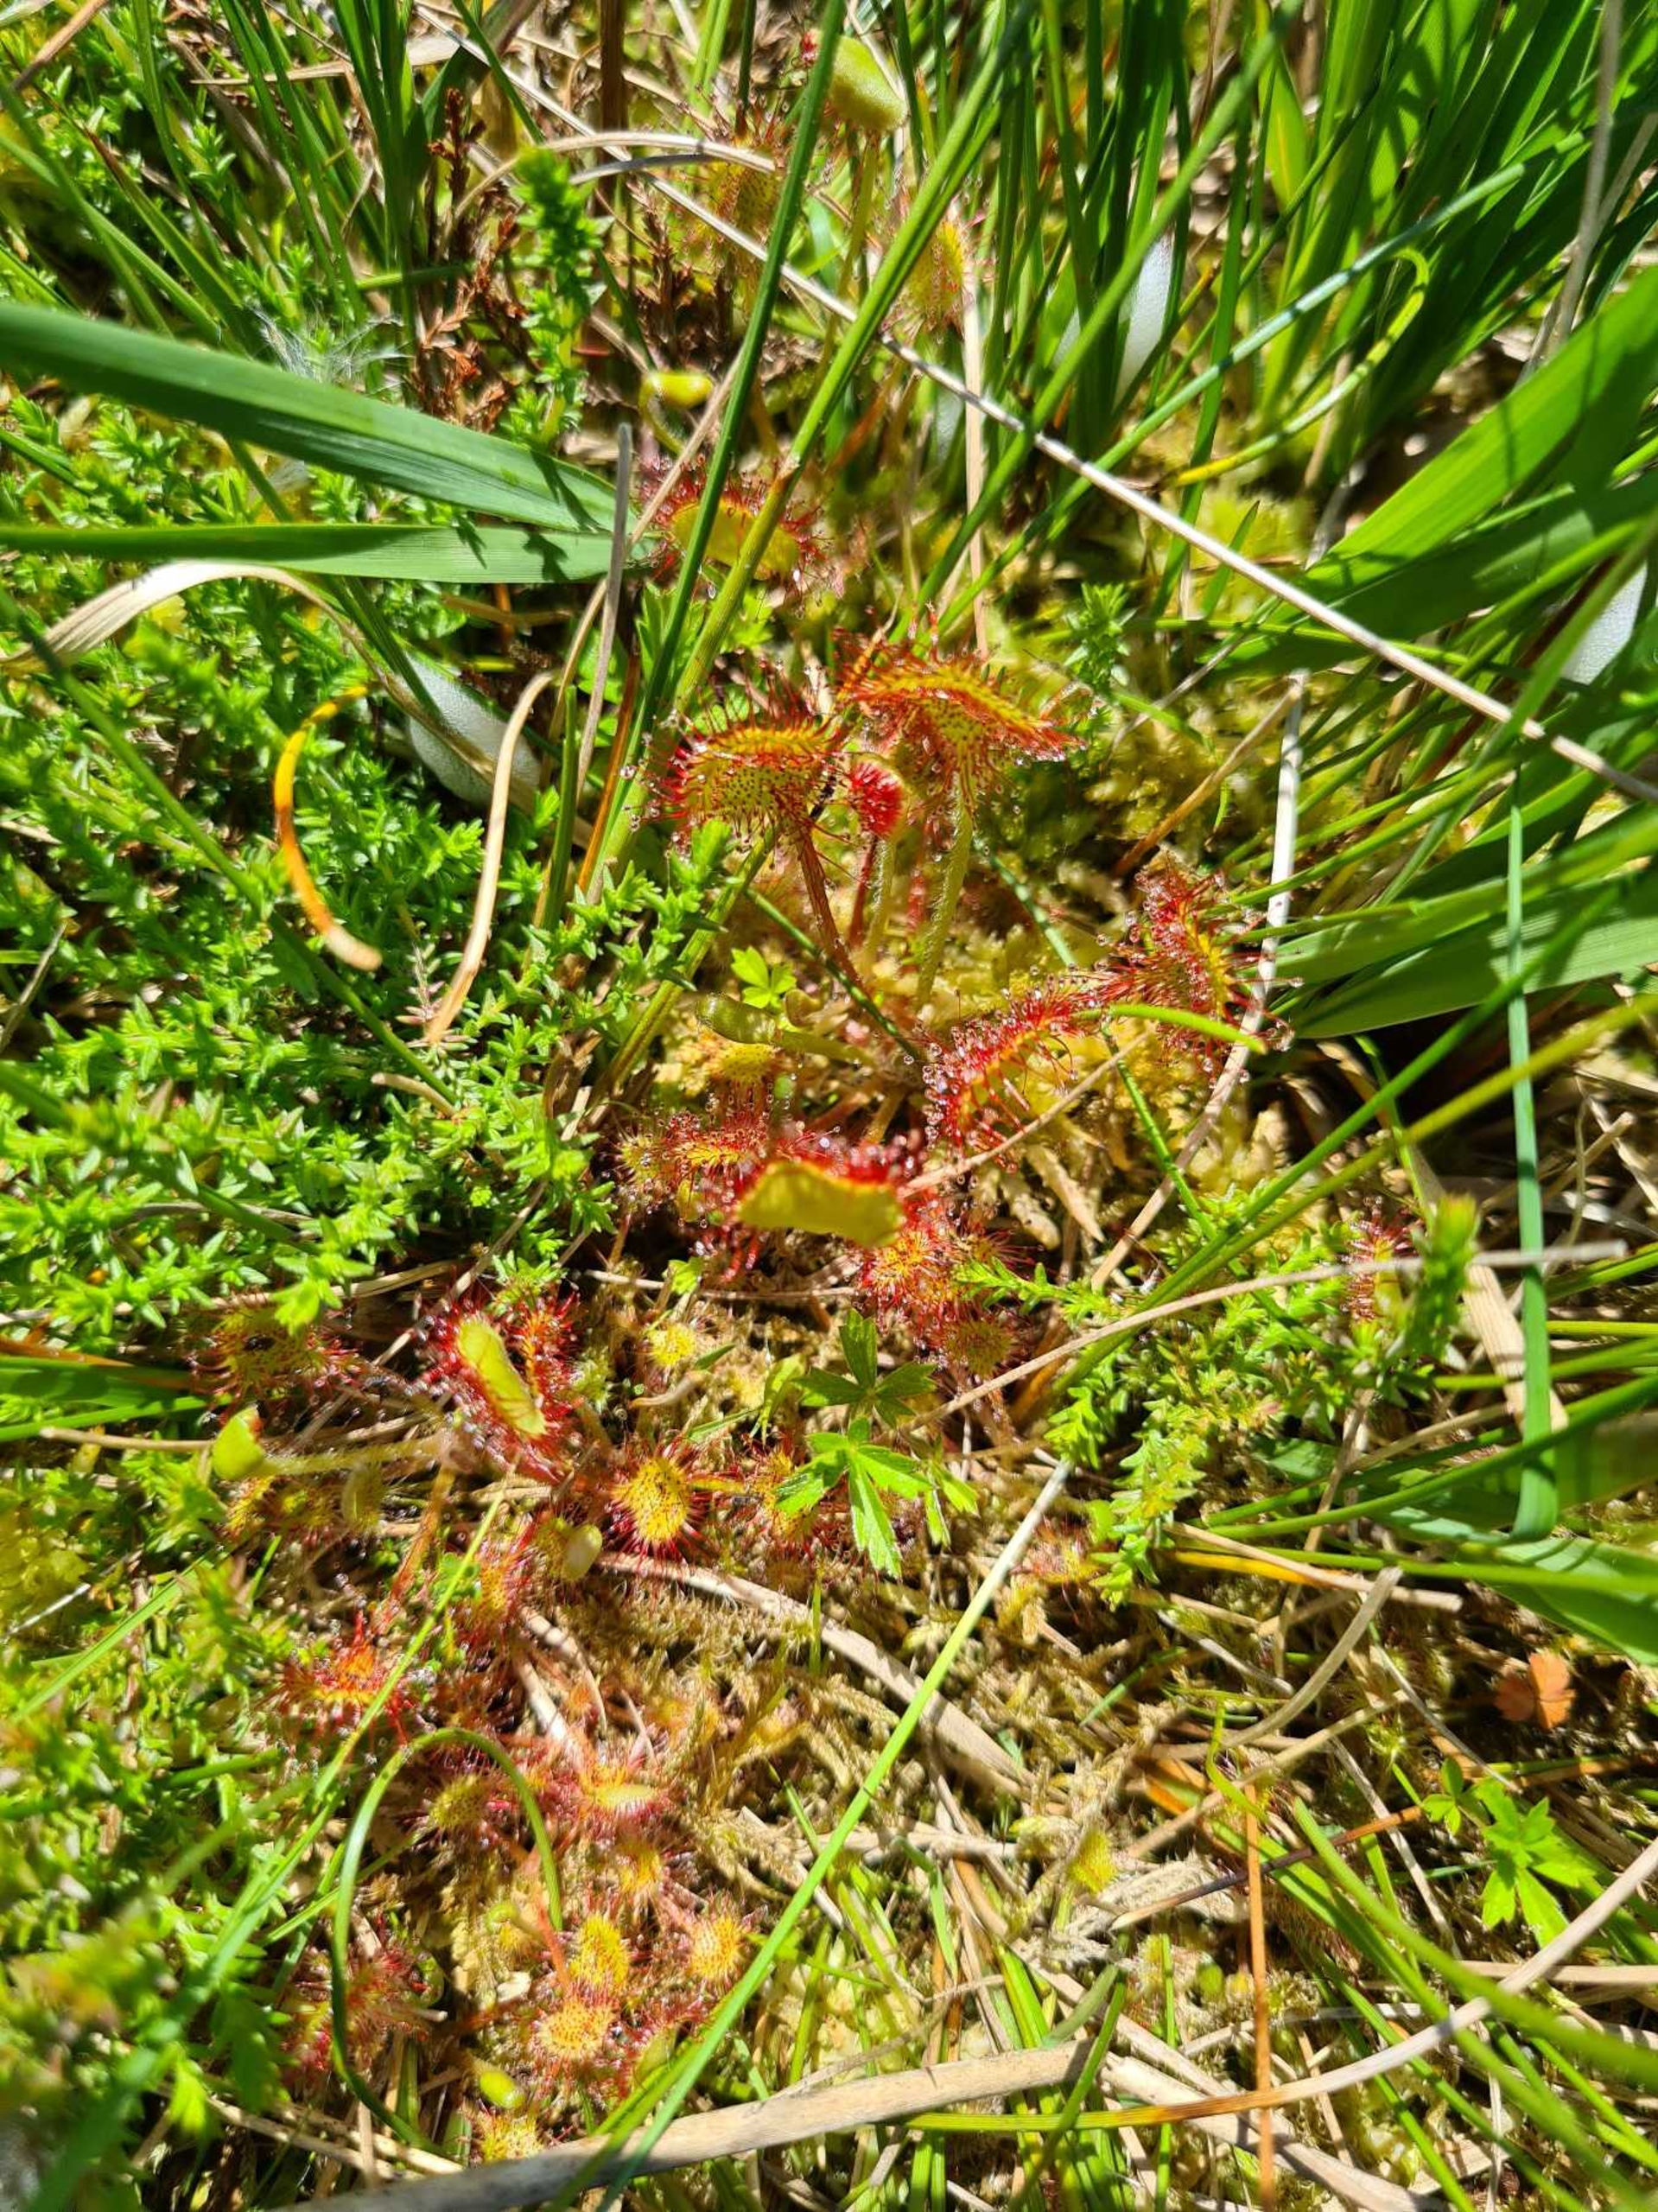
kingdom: Plantae
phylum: Tracheophyta
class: Magnoliopsida
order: Caryophyllales
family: Droseraceae
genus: Drosera
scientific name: Drosera rotundifolia
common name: Rundbladet soldug
